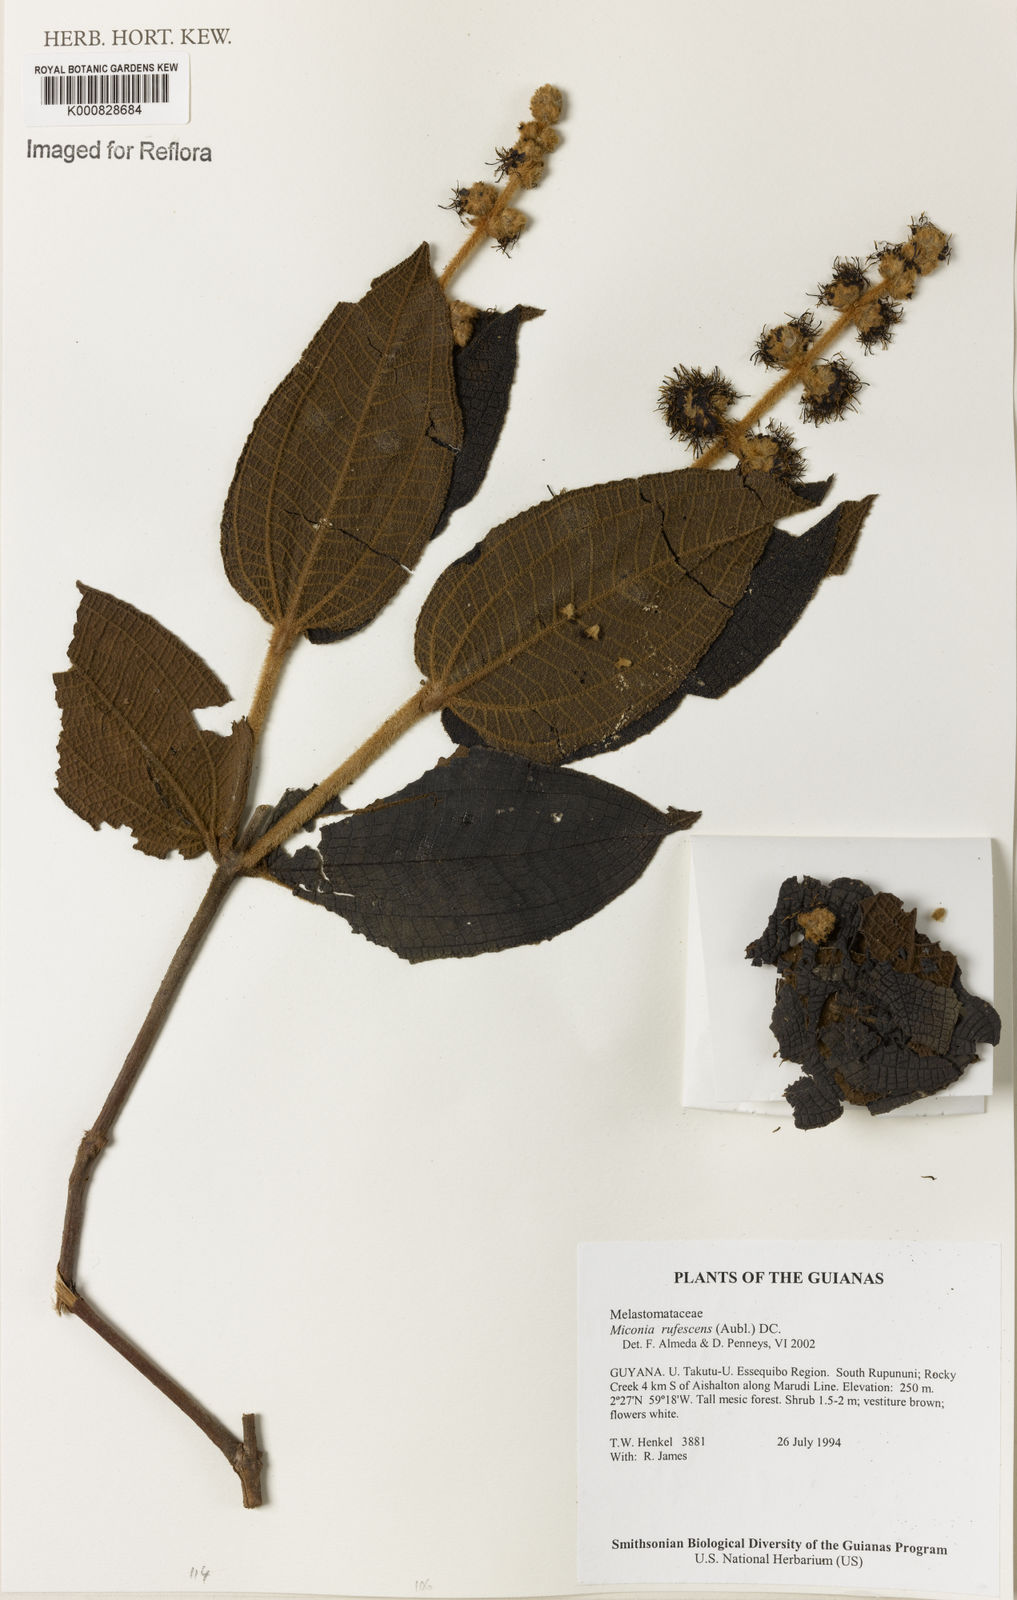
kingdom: Plantae
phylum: Tracheophyta
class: Magnoliopsida
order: Myrtales
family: Melastomataceae
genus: Miconia
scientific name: Miconia rufescens
